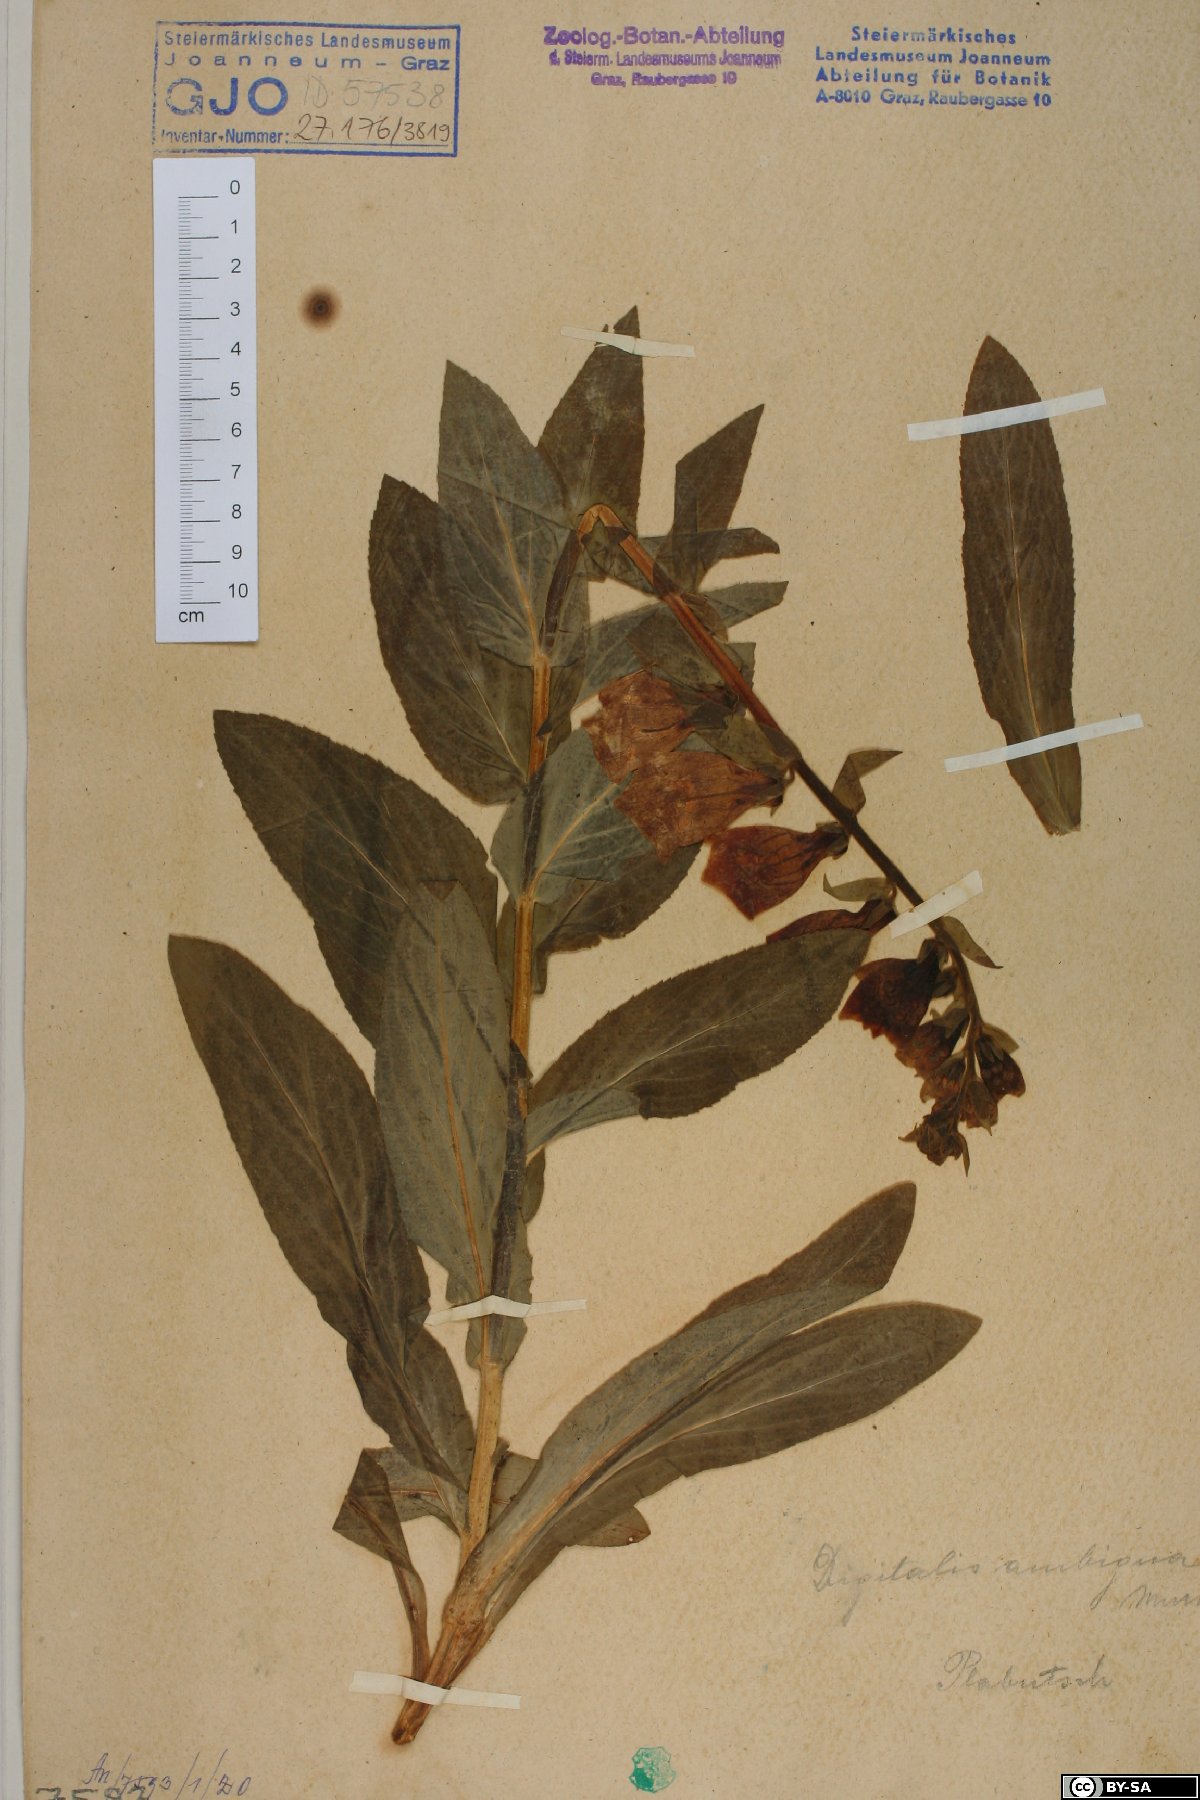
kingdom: Plantae
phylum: Tracheophyta
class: Magnoliopsida
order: Lamiales
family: Plantaginaceae
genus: Digitalis
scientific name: Digitalis grandiflora
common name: Yellow foxglove
